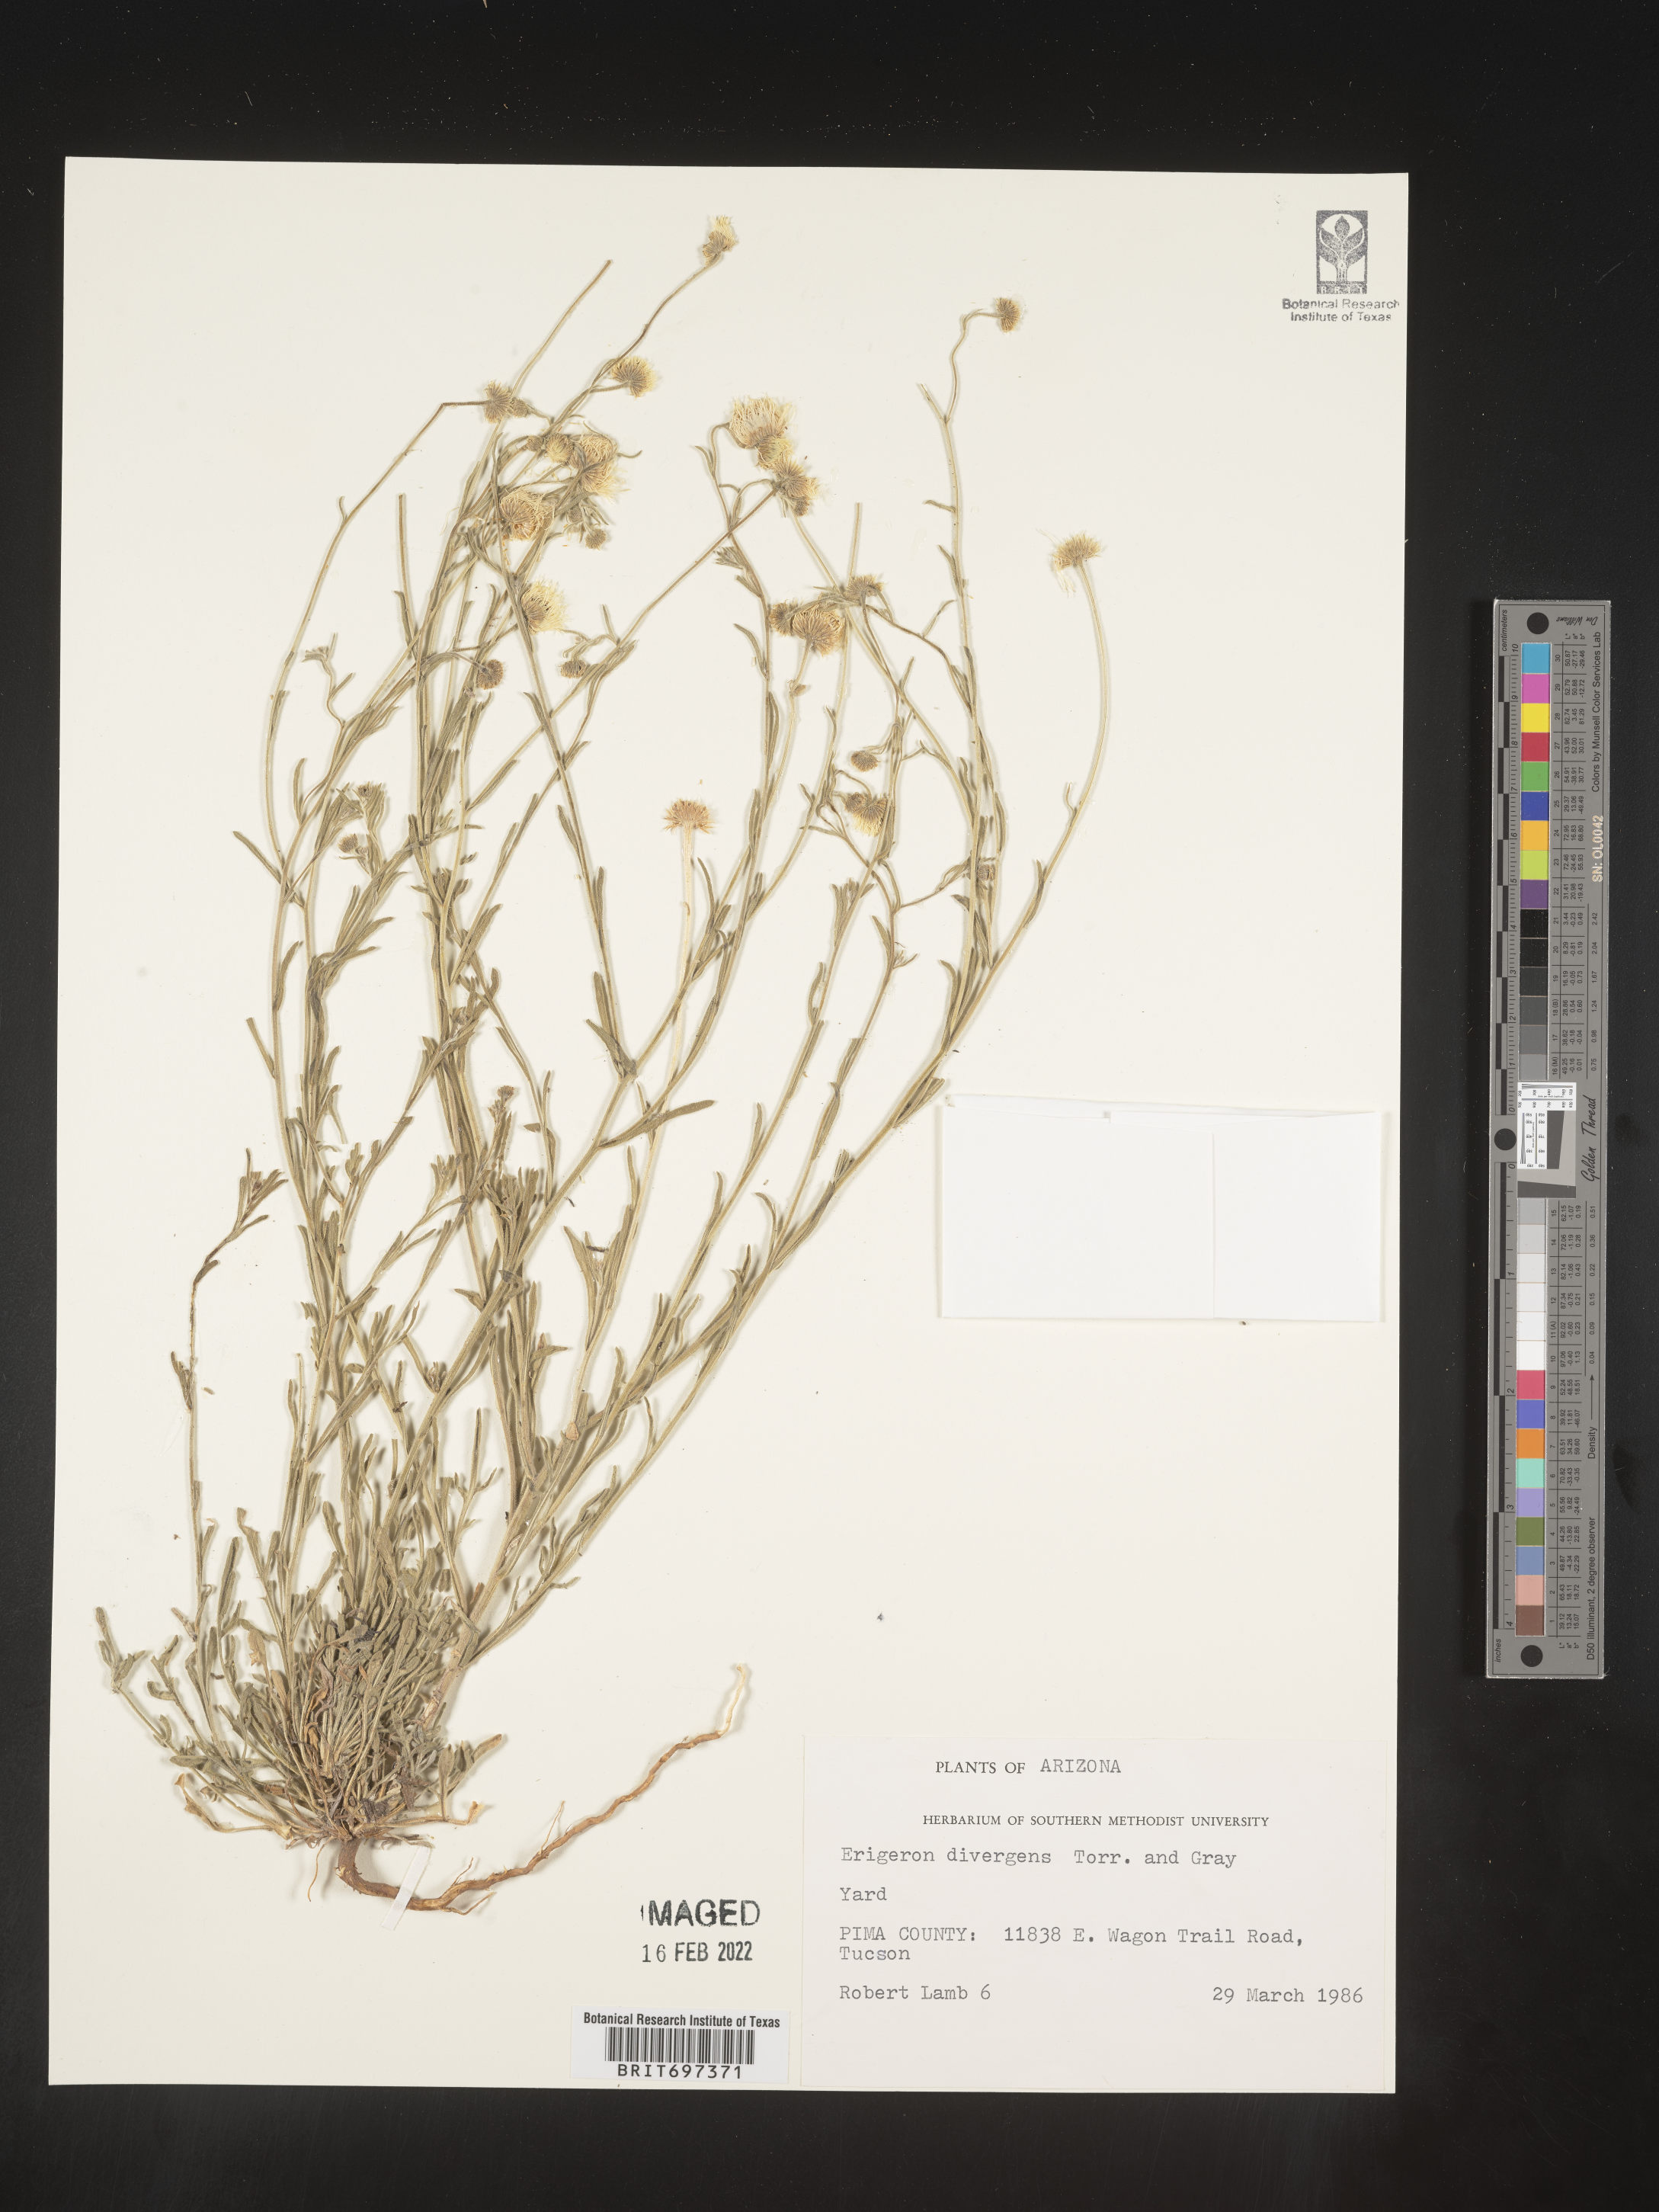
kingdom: Plantae
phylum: Tracheophyta
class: Magnoliopsida
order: Asterales
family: Asteraceae
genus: Erigeron
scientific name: Erigeron divergens
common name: Diffuse fleabane
